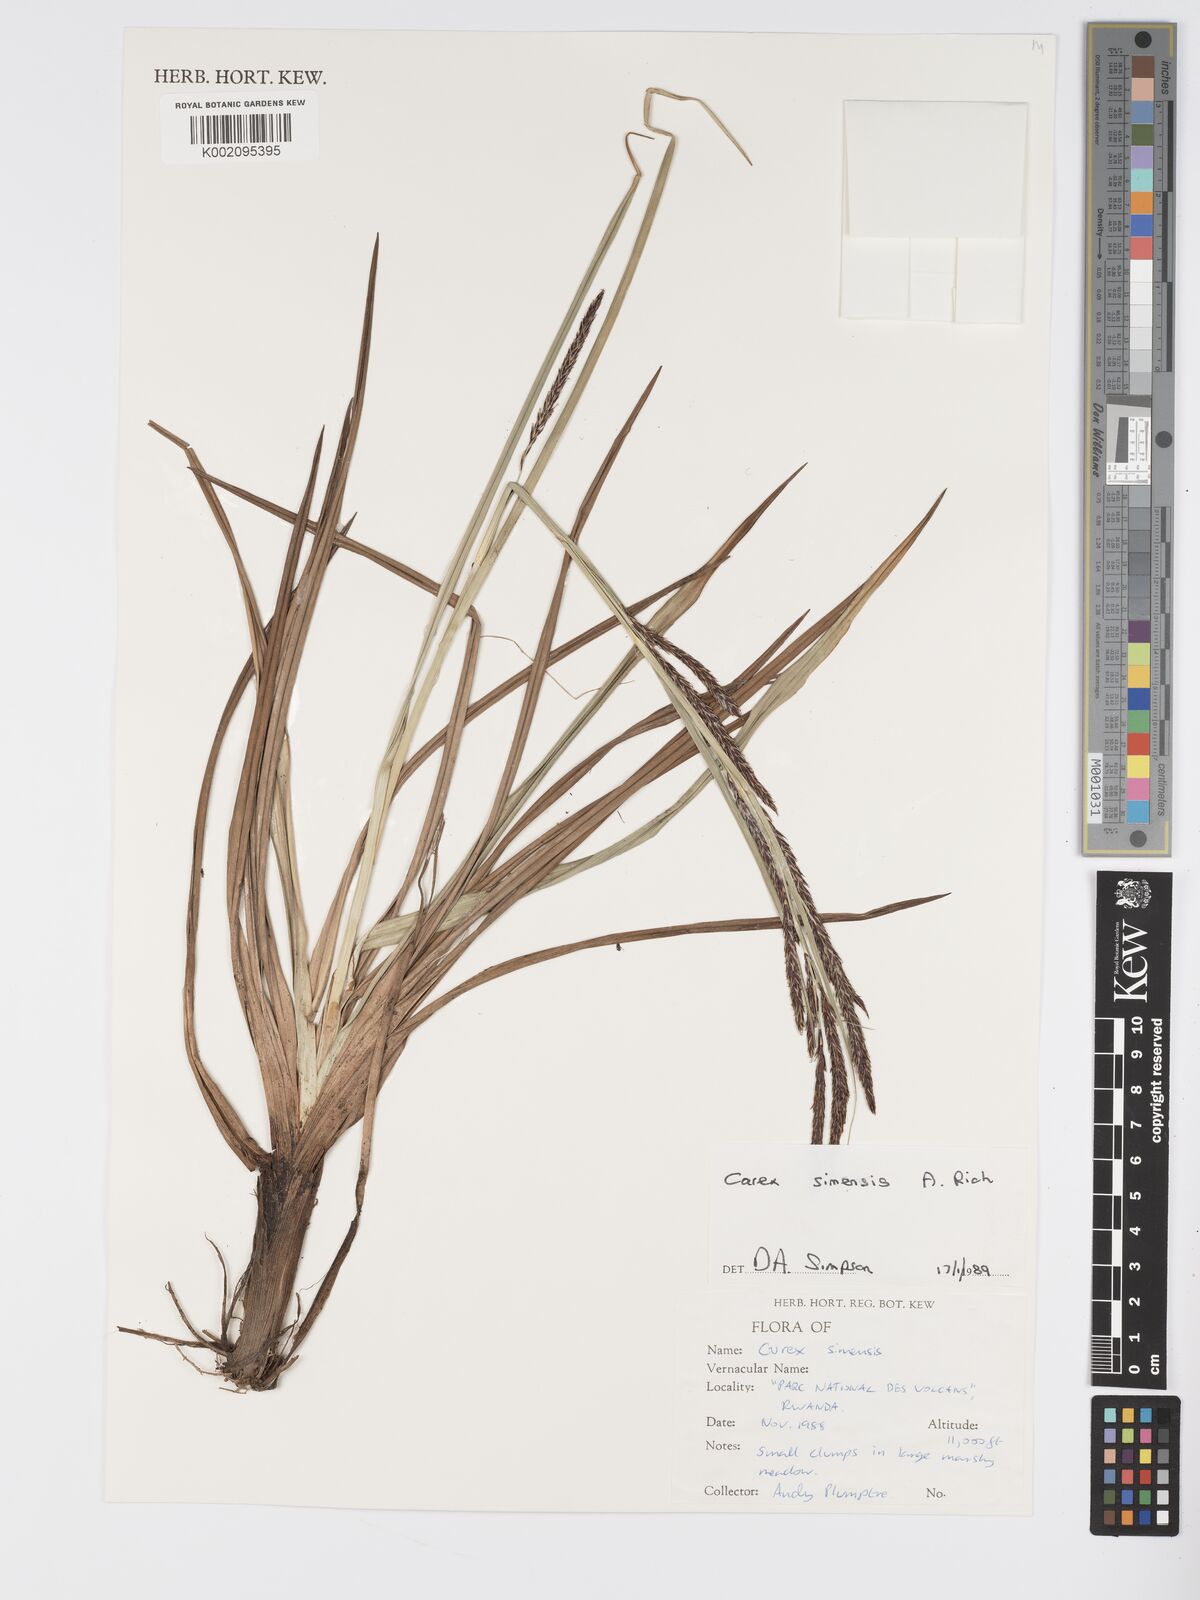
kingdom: Plantae
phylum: Tracheophyta
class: Liliopsida
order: Poales
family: Cyperaceae
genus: Carex
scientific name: Carex simensis
